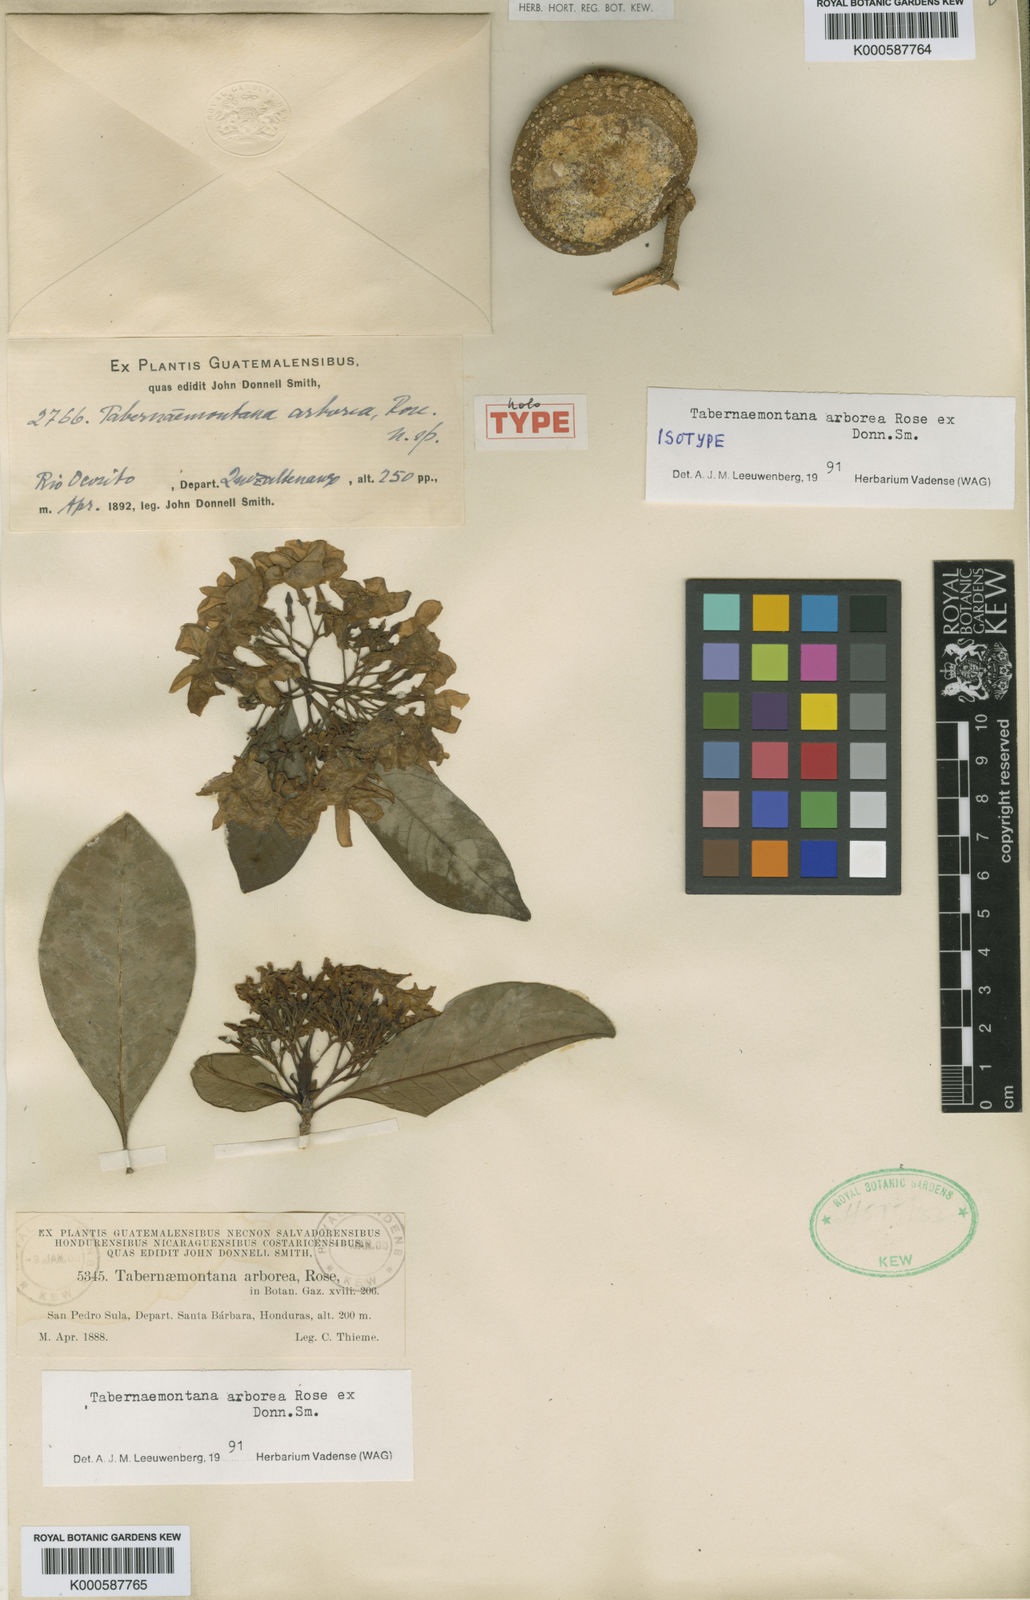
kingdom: Plantae
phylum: Tracheophyta
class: Magnoliopsida
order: Gentianales
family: Apocynaceae
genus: Tabernaemontana
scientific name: Tabernaemontana arborea
